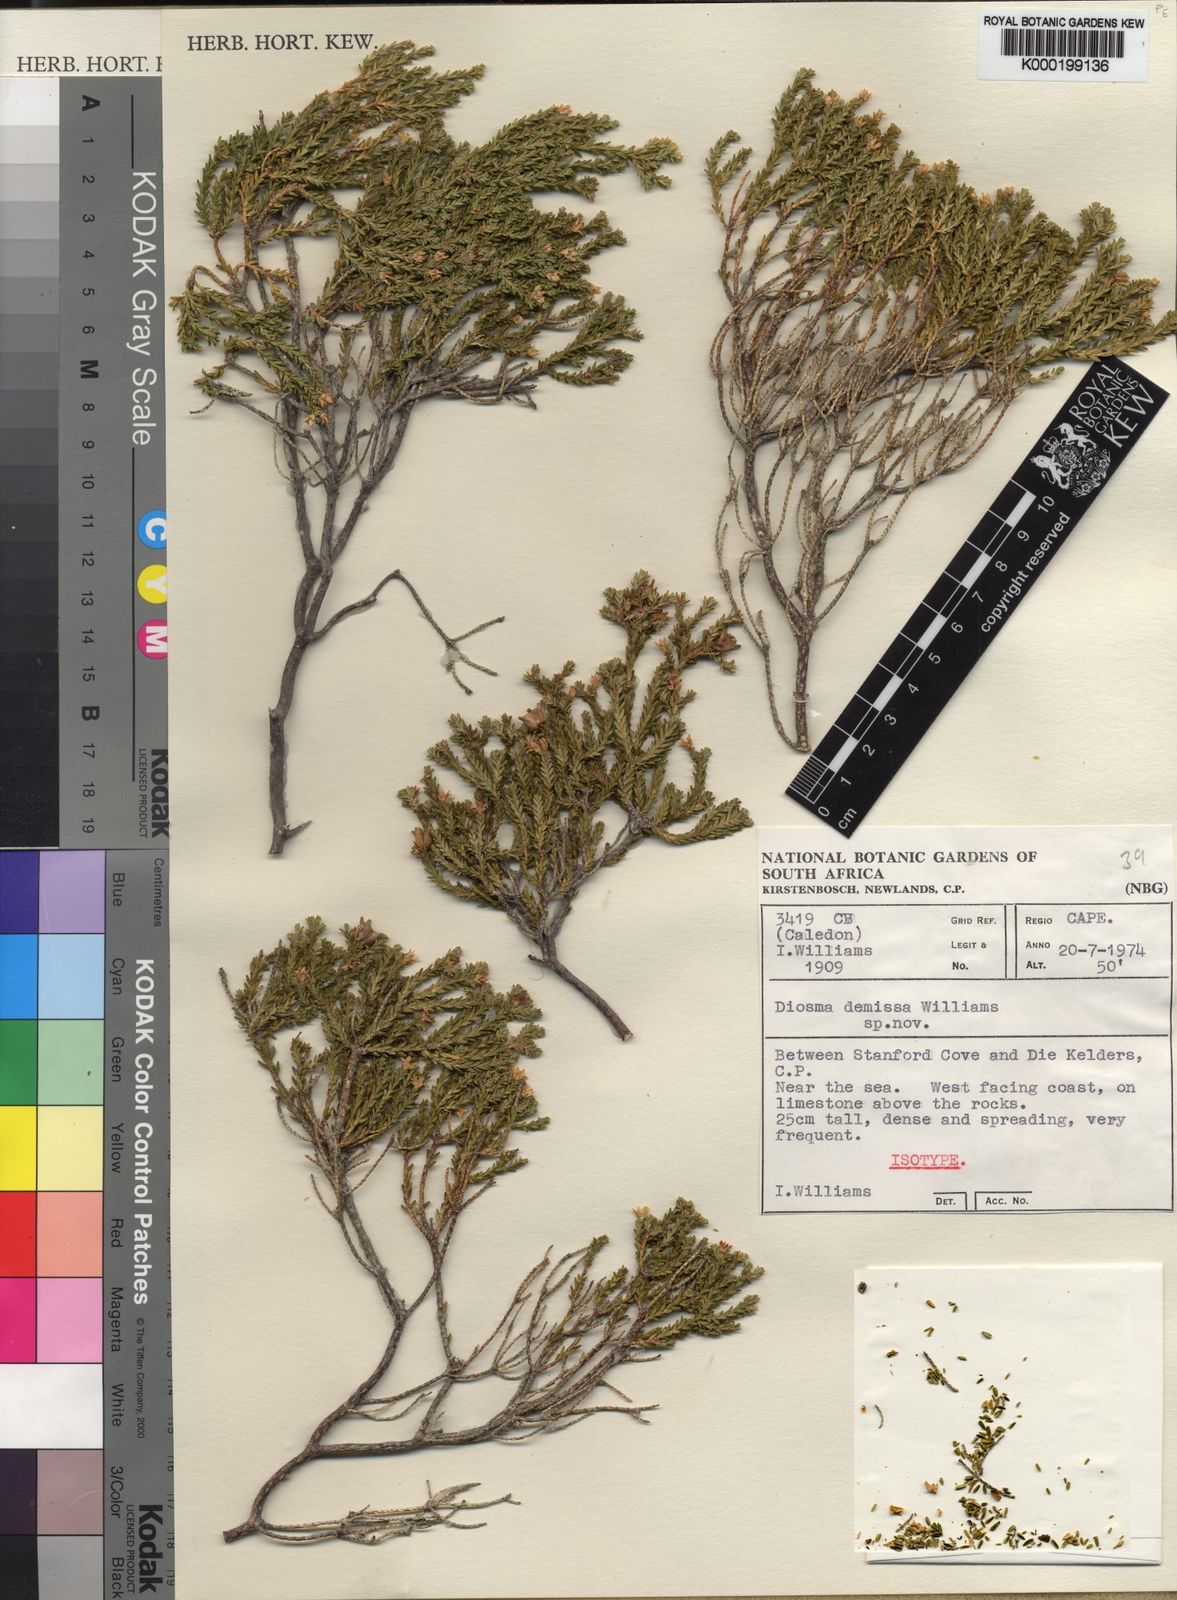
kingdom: Plantae
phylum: Tracheophyta
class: Magnoliopsida
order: Sapindales
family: Rutaceae
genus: Diosma
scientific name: Diosma demissa
